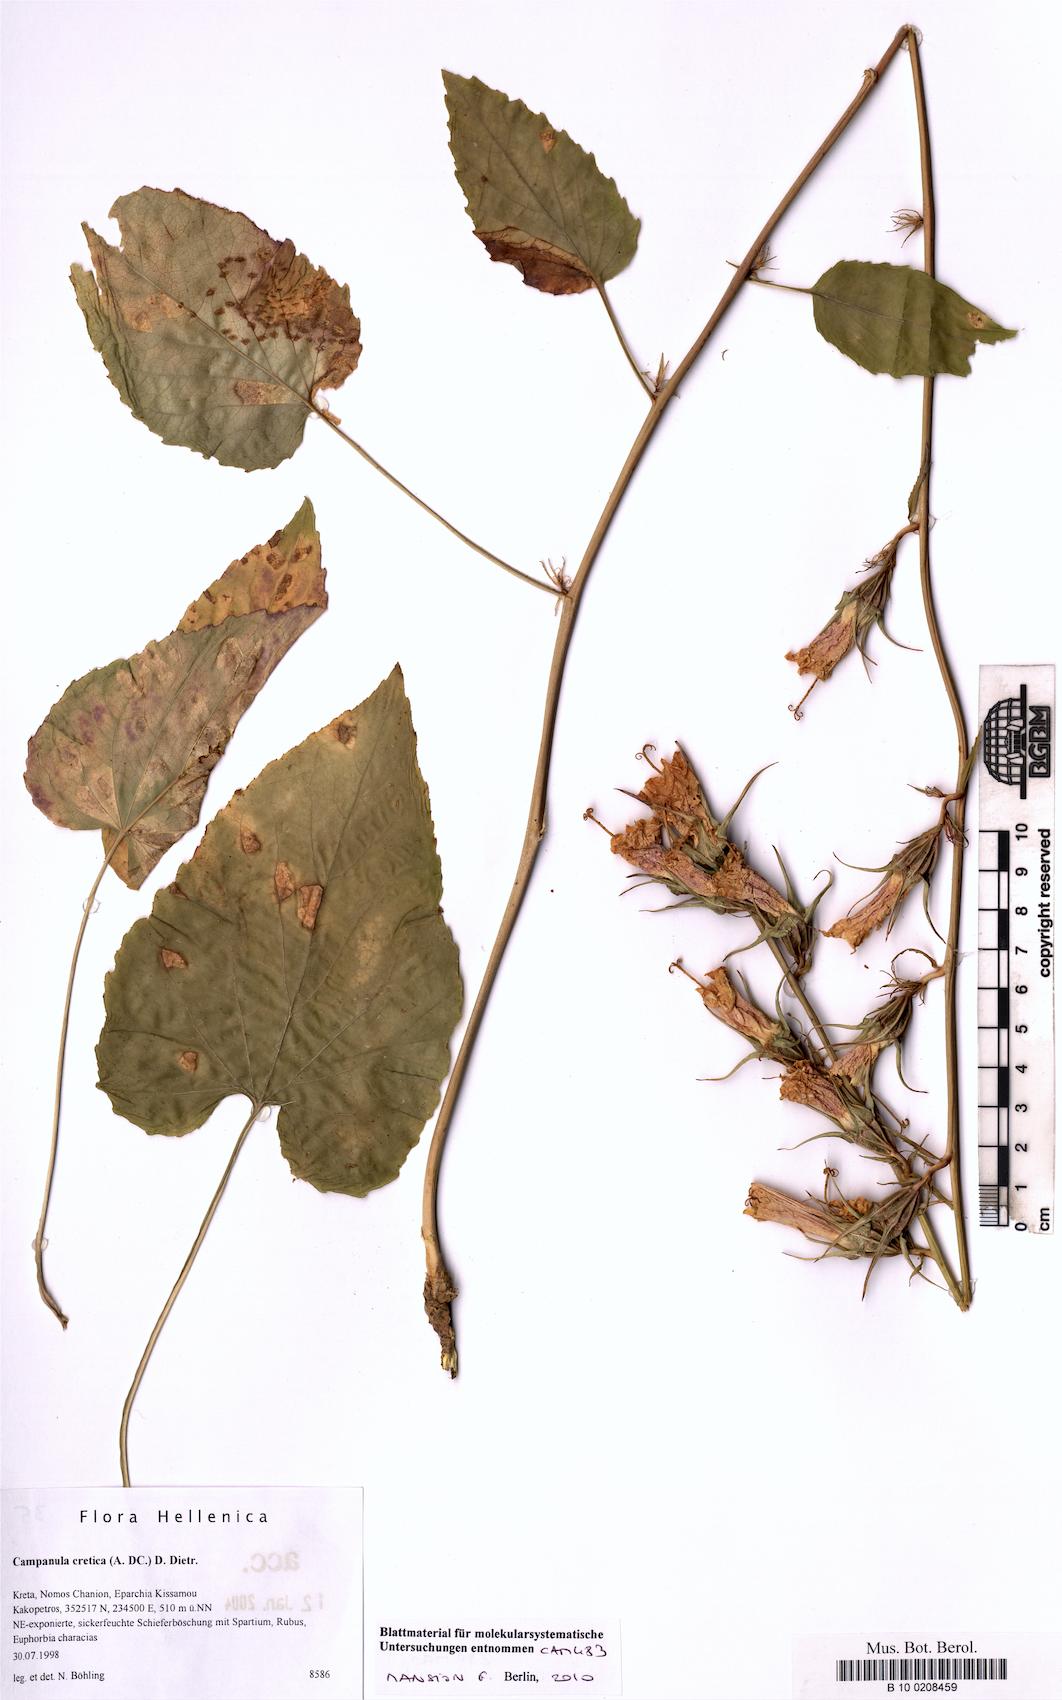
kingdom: Plantae
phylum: Tracheophyta
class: Magnoliopsida
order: Asterales
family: Campanulaceae
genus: Campanula
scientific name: Campanula cretica
